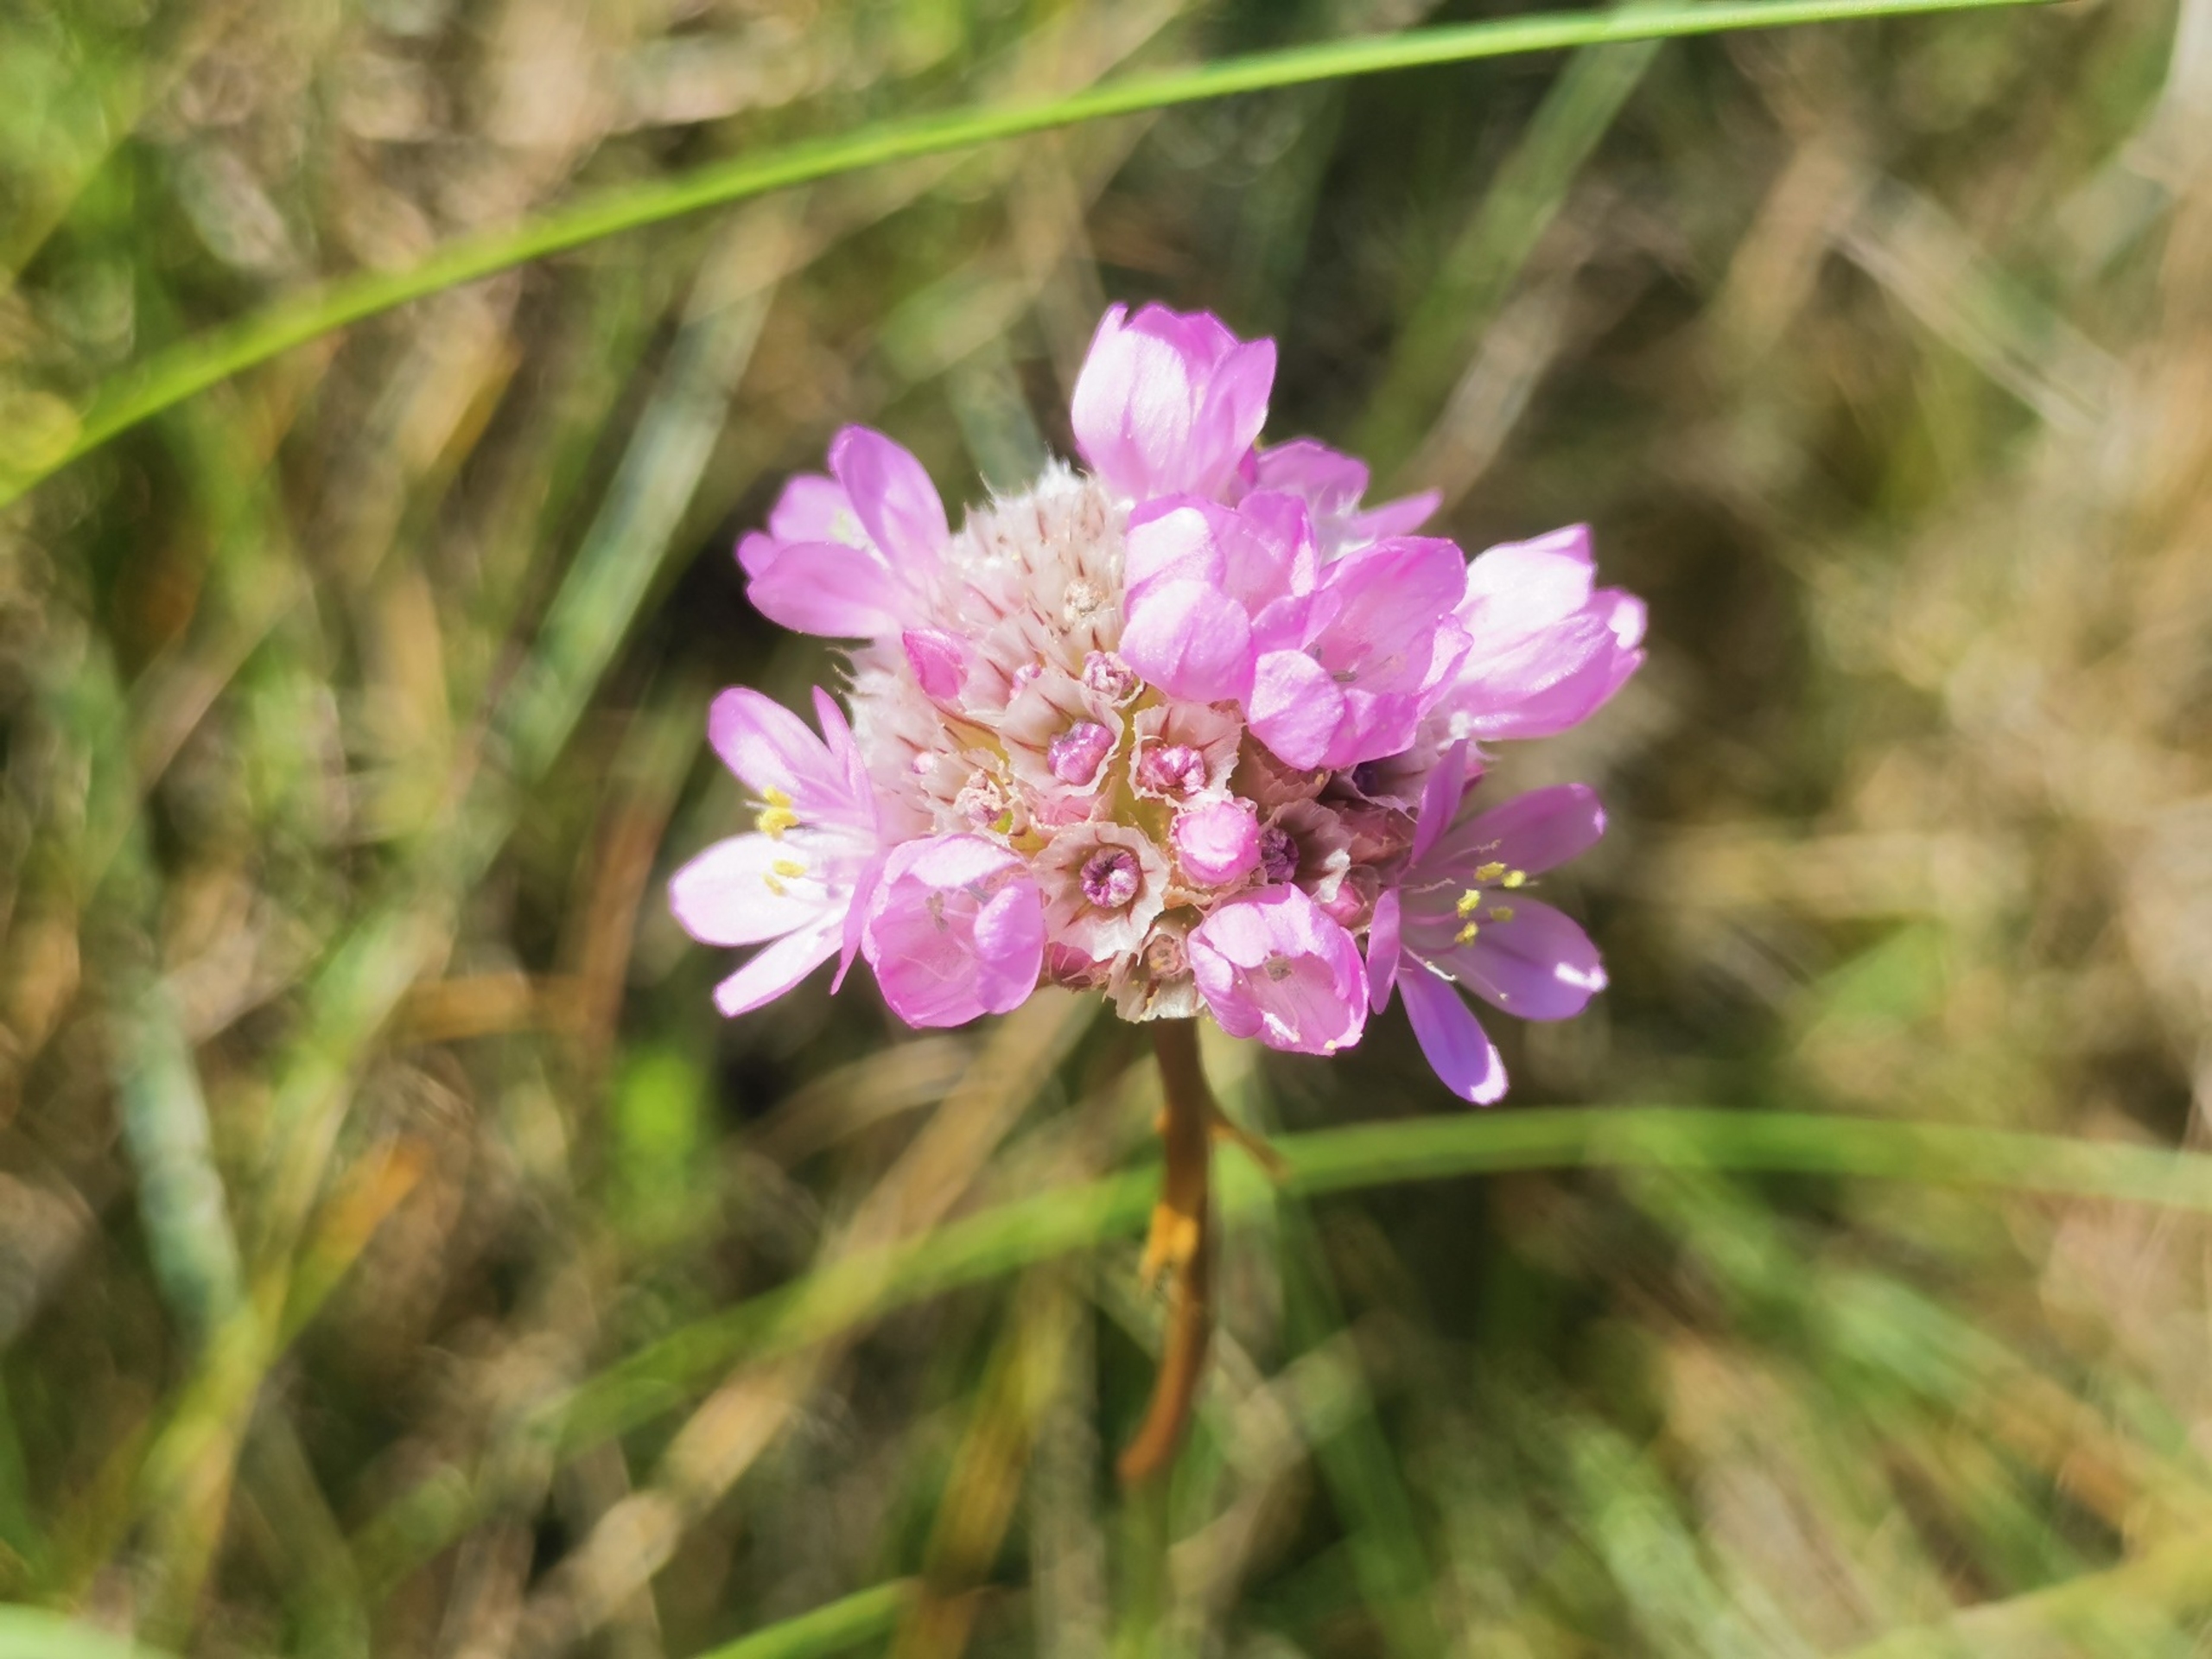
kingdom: Plantae
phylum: Tracheophyta
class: Magnoliopsida
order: Caryophyllales
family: Plumbaginaceae
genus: Armeria
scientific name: Armeria maritima
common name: Engelskgræs
